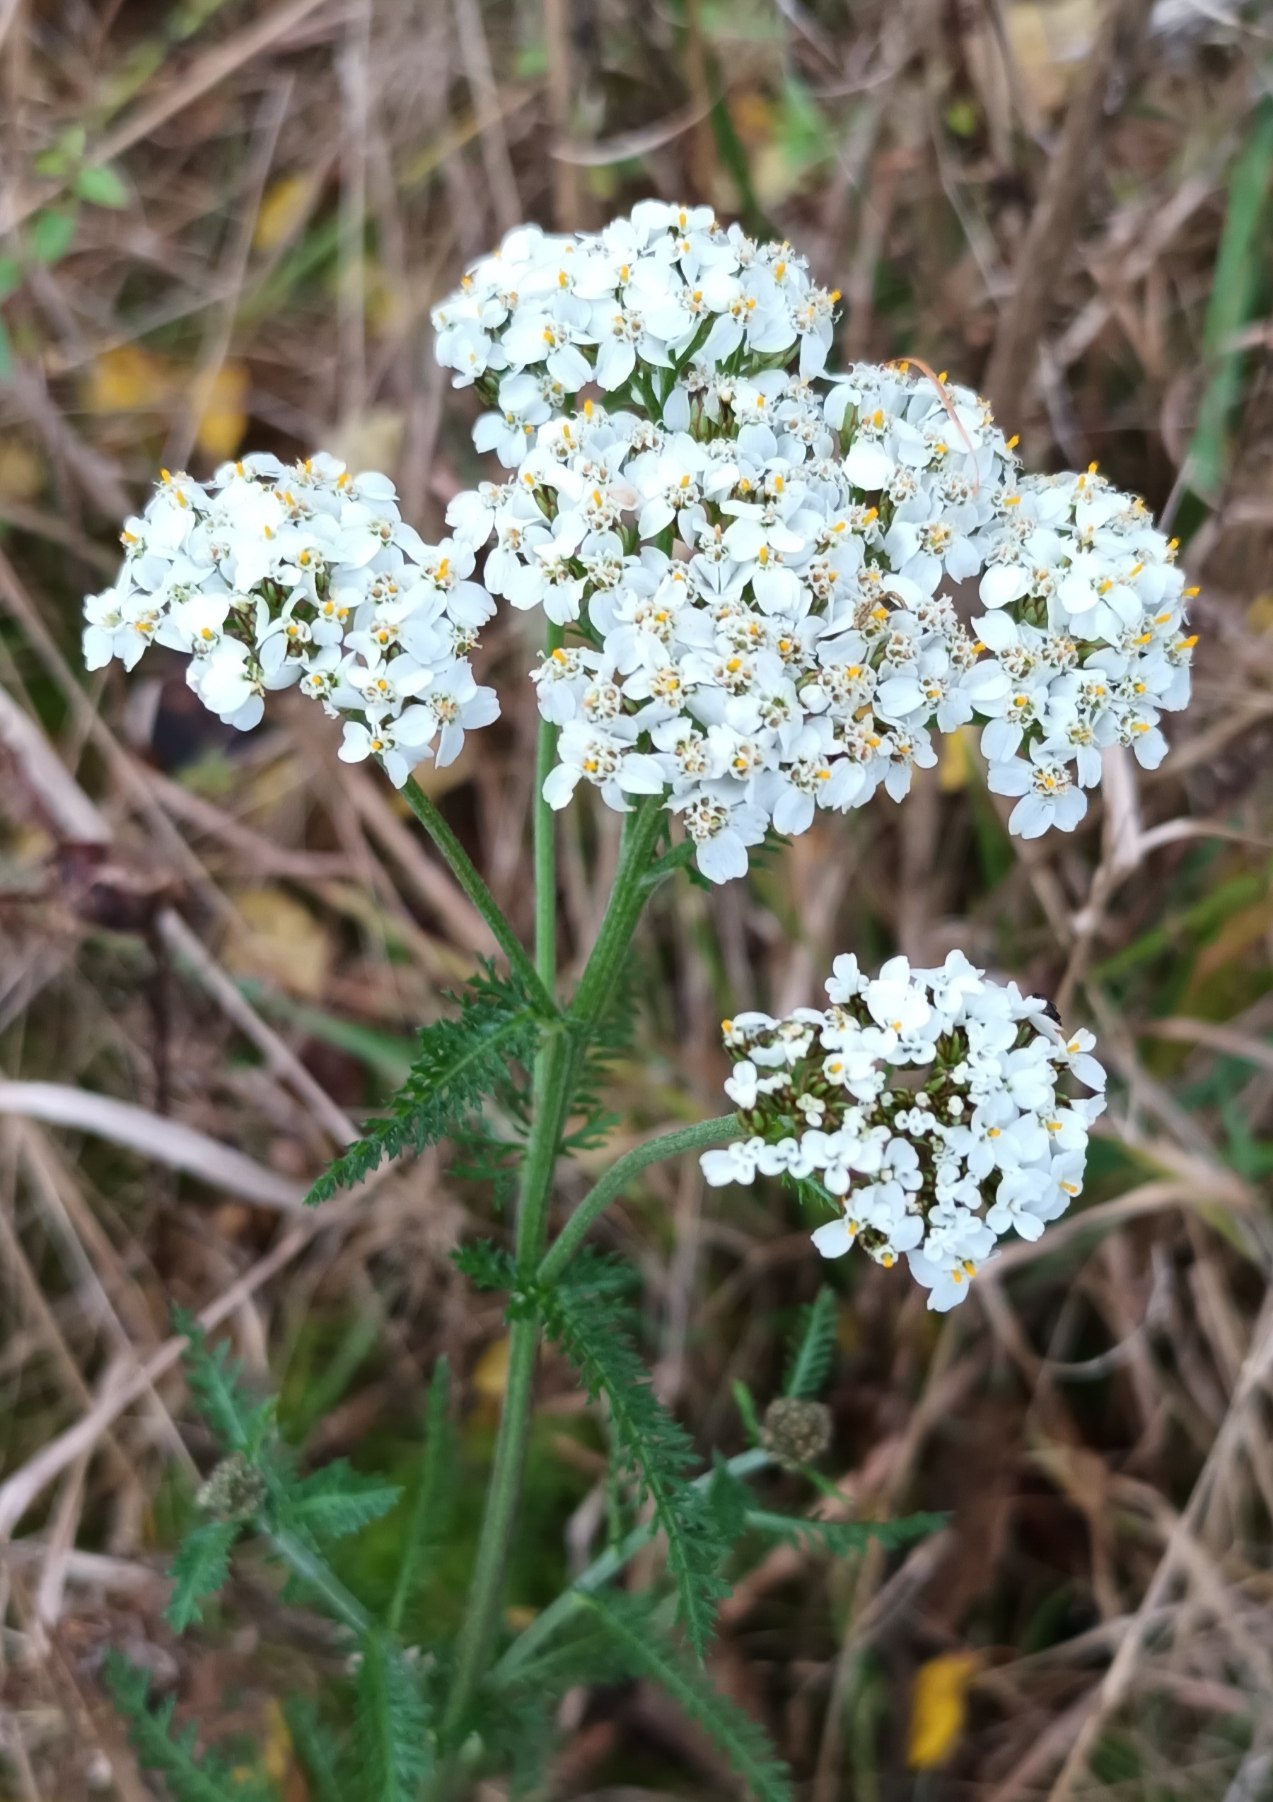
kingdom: Plantae
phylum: Tracheophyta
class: Magnoliopsida
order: Asterales
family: Asteraceae
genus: Achillea
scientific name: Achillea millefolium
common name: Almindelig røllike
